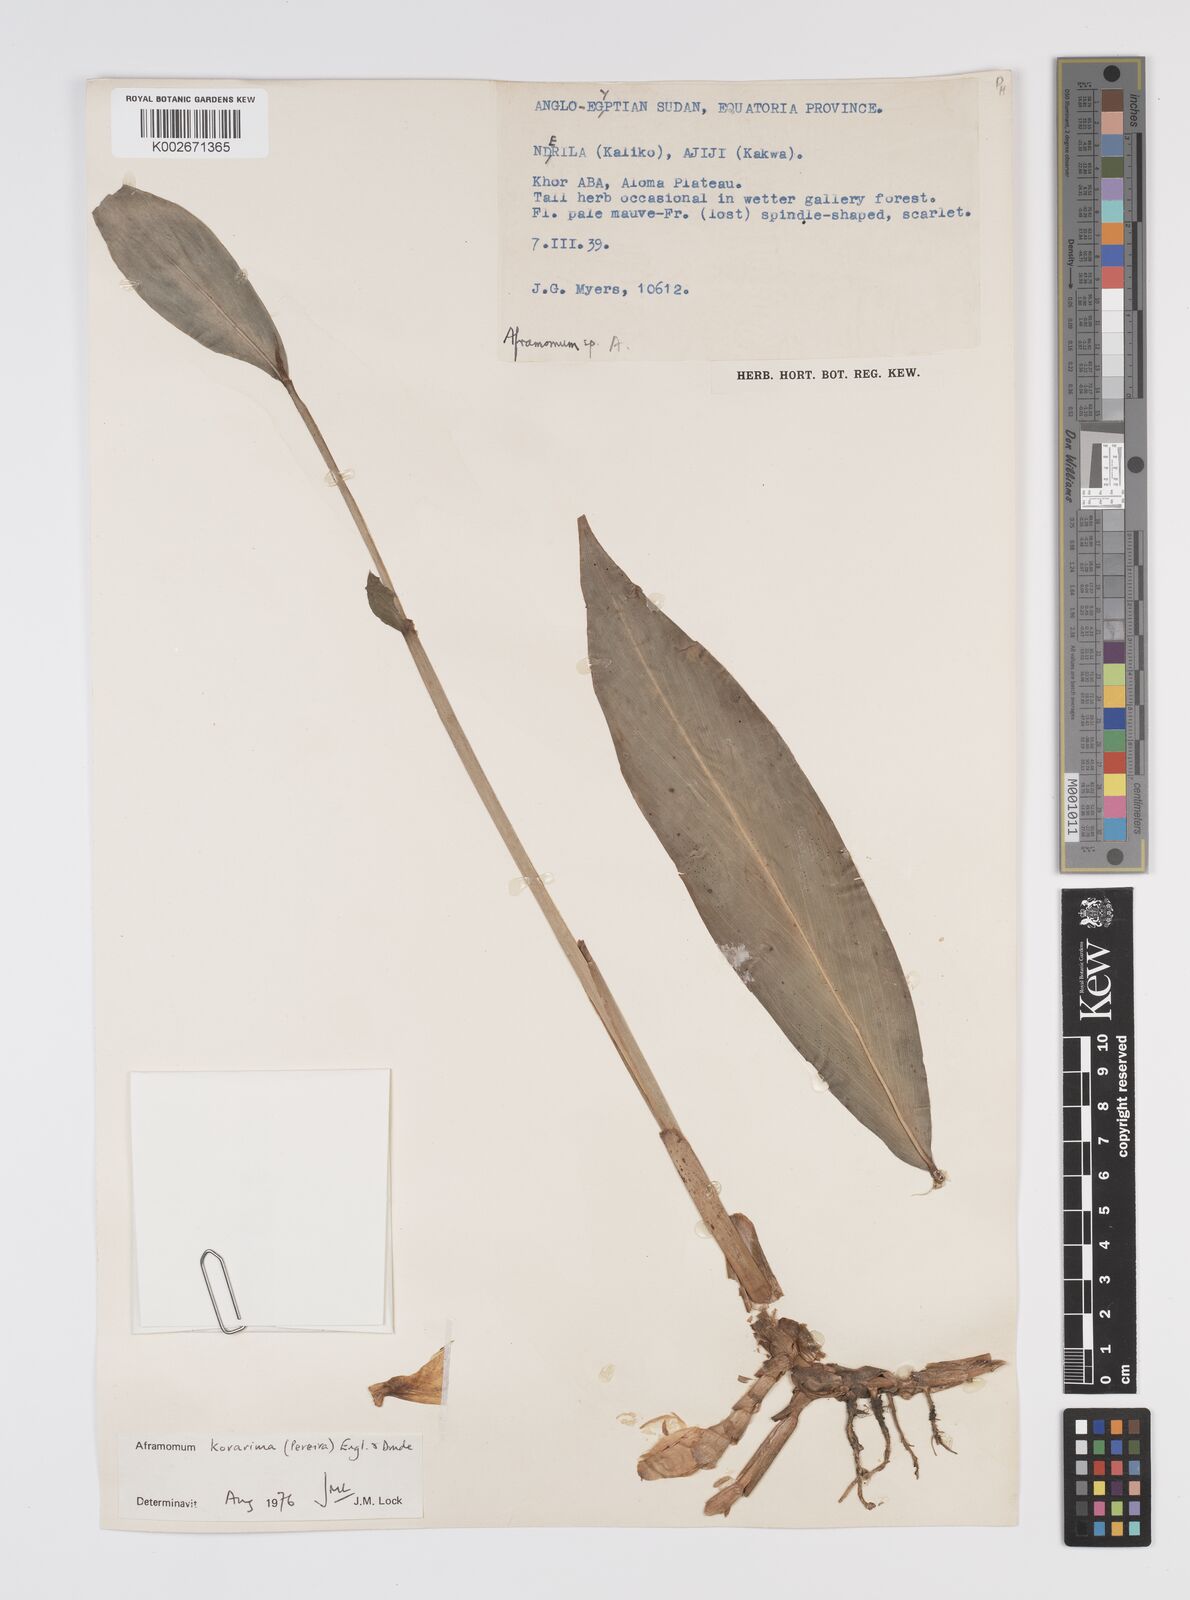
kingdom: Plantae
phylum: Tracheophyta
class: Liliopsida
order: Zingiberales
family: Zingiberaceae
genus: Aframomum
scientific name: Aframomum corrorima
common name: Ethiopian cardamom
